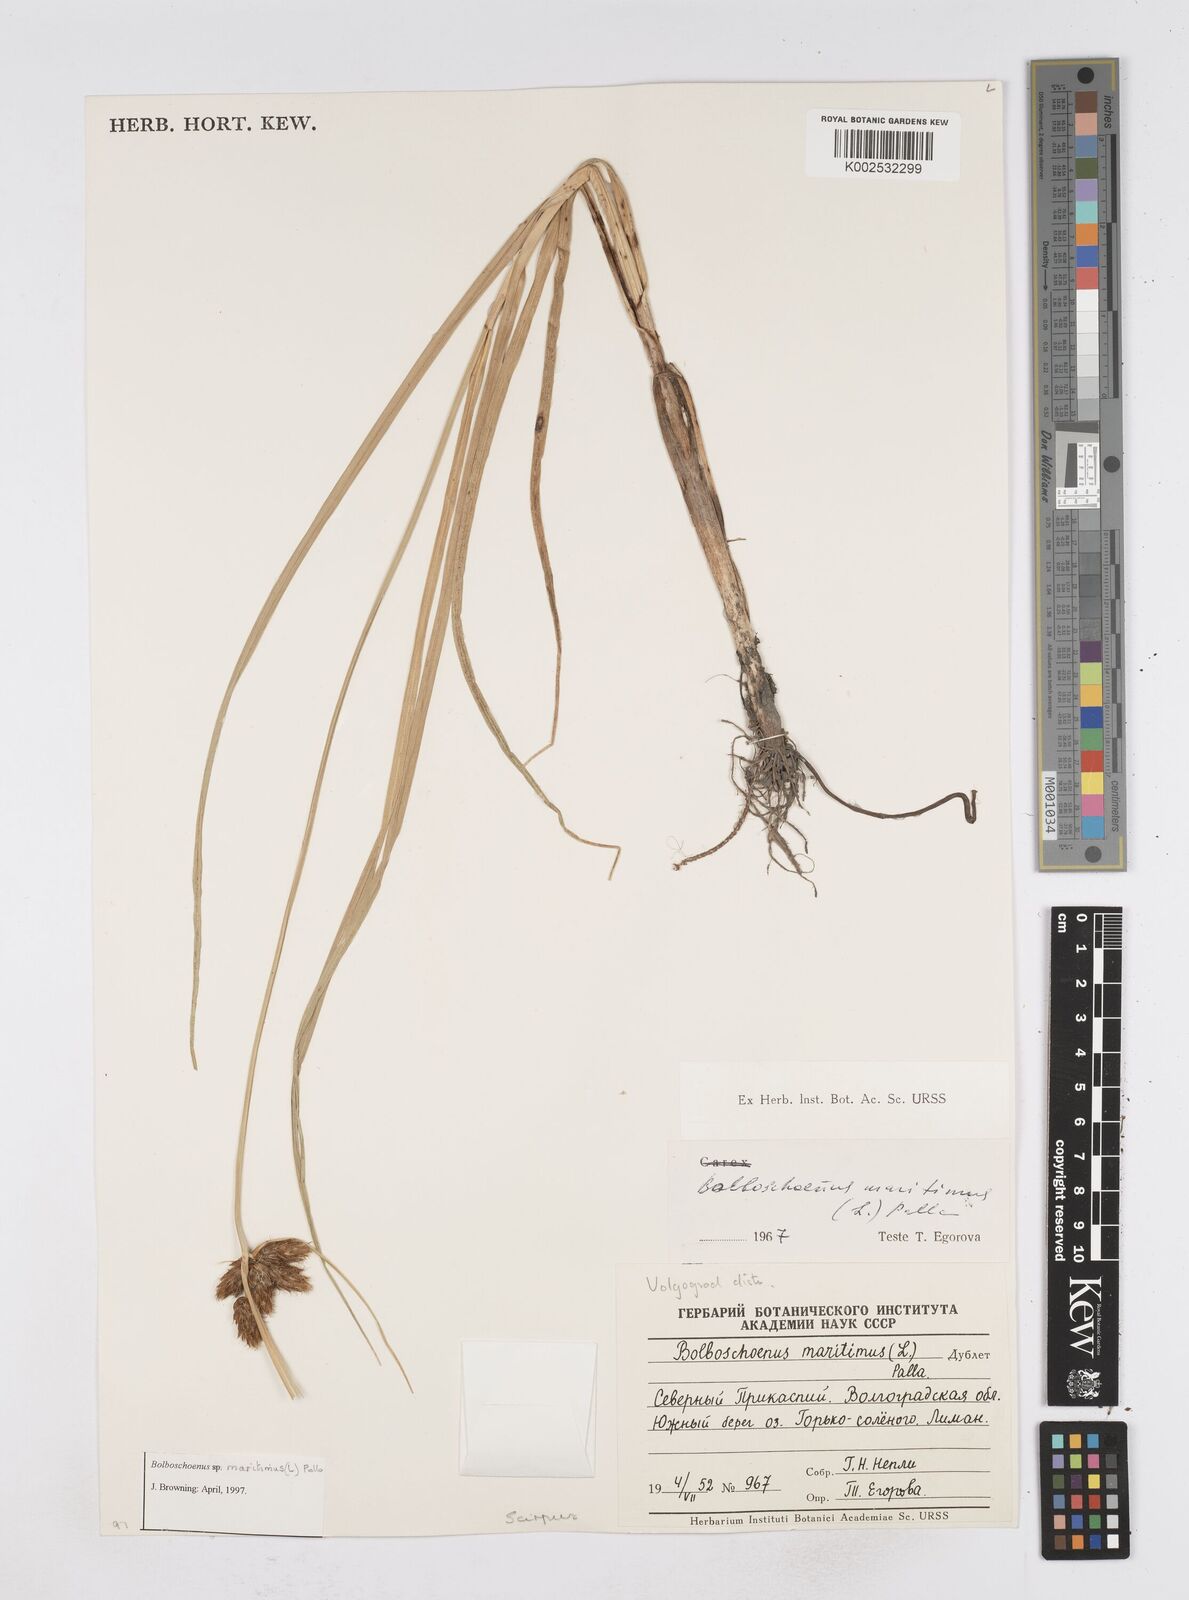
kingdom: Plantae
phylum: Tracheophyta
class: Liliopsida
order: Poales
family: Cyperaceae
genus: Bolboschoenus
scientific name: Bolboschoenus maritimus
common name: Sea club-rush
